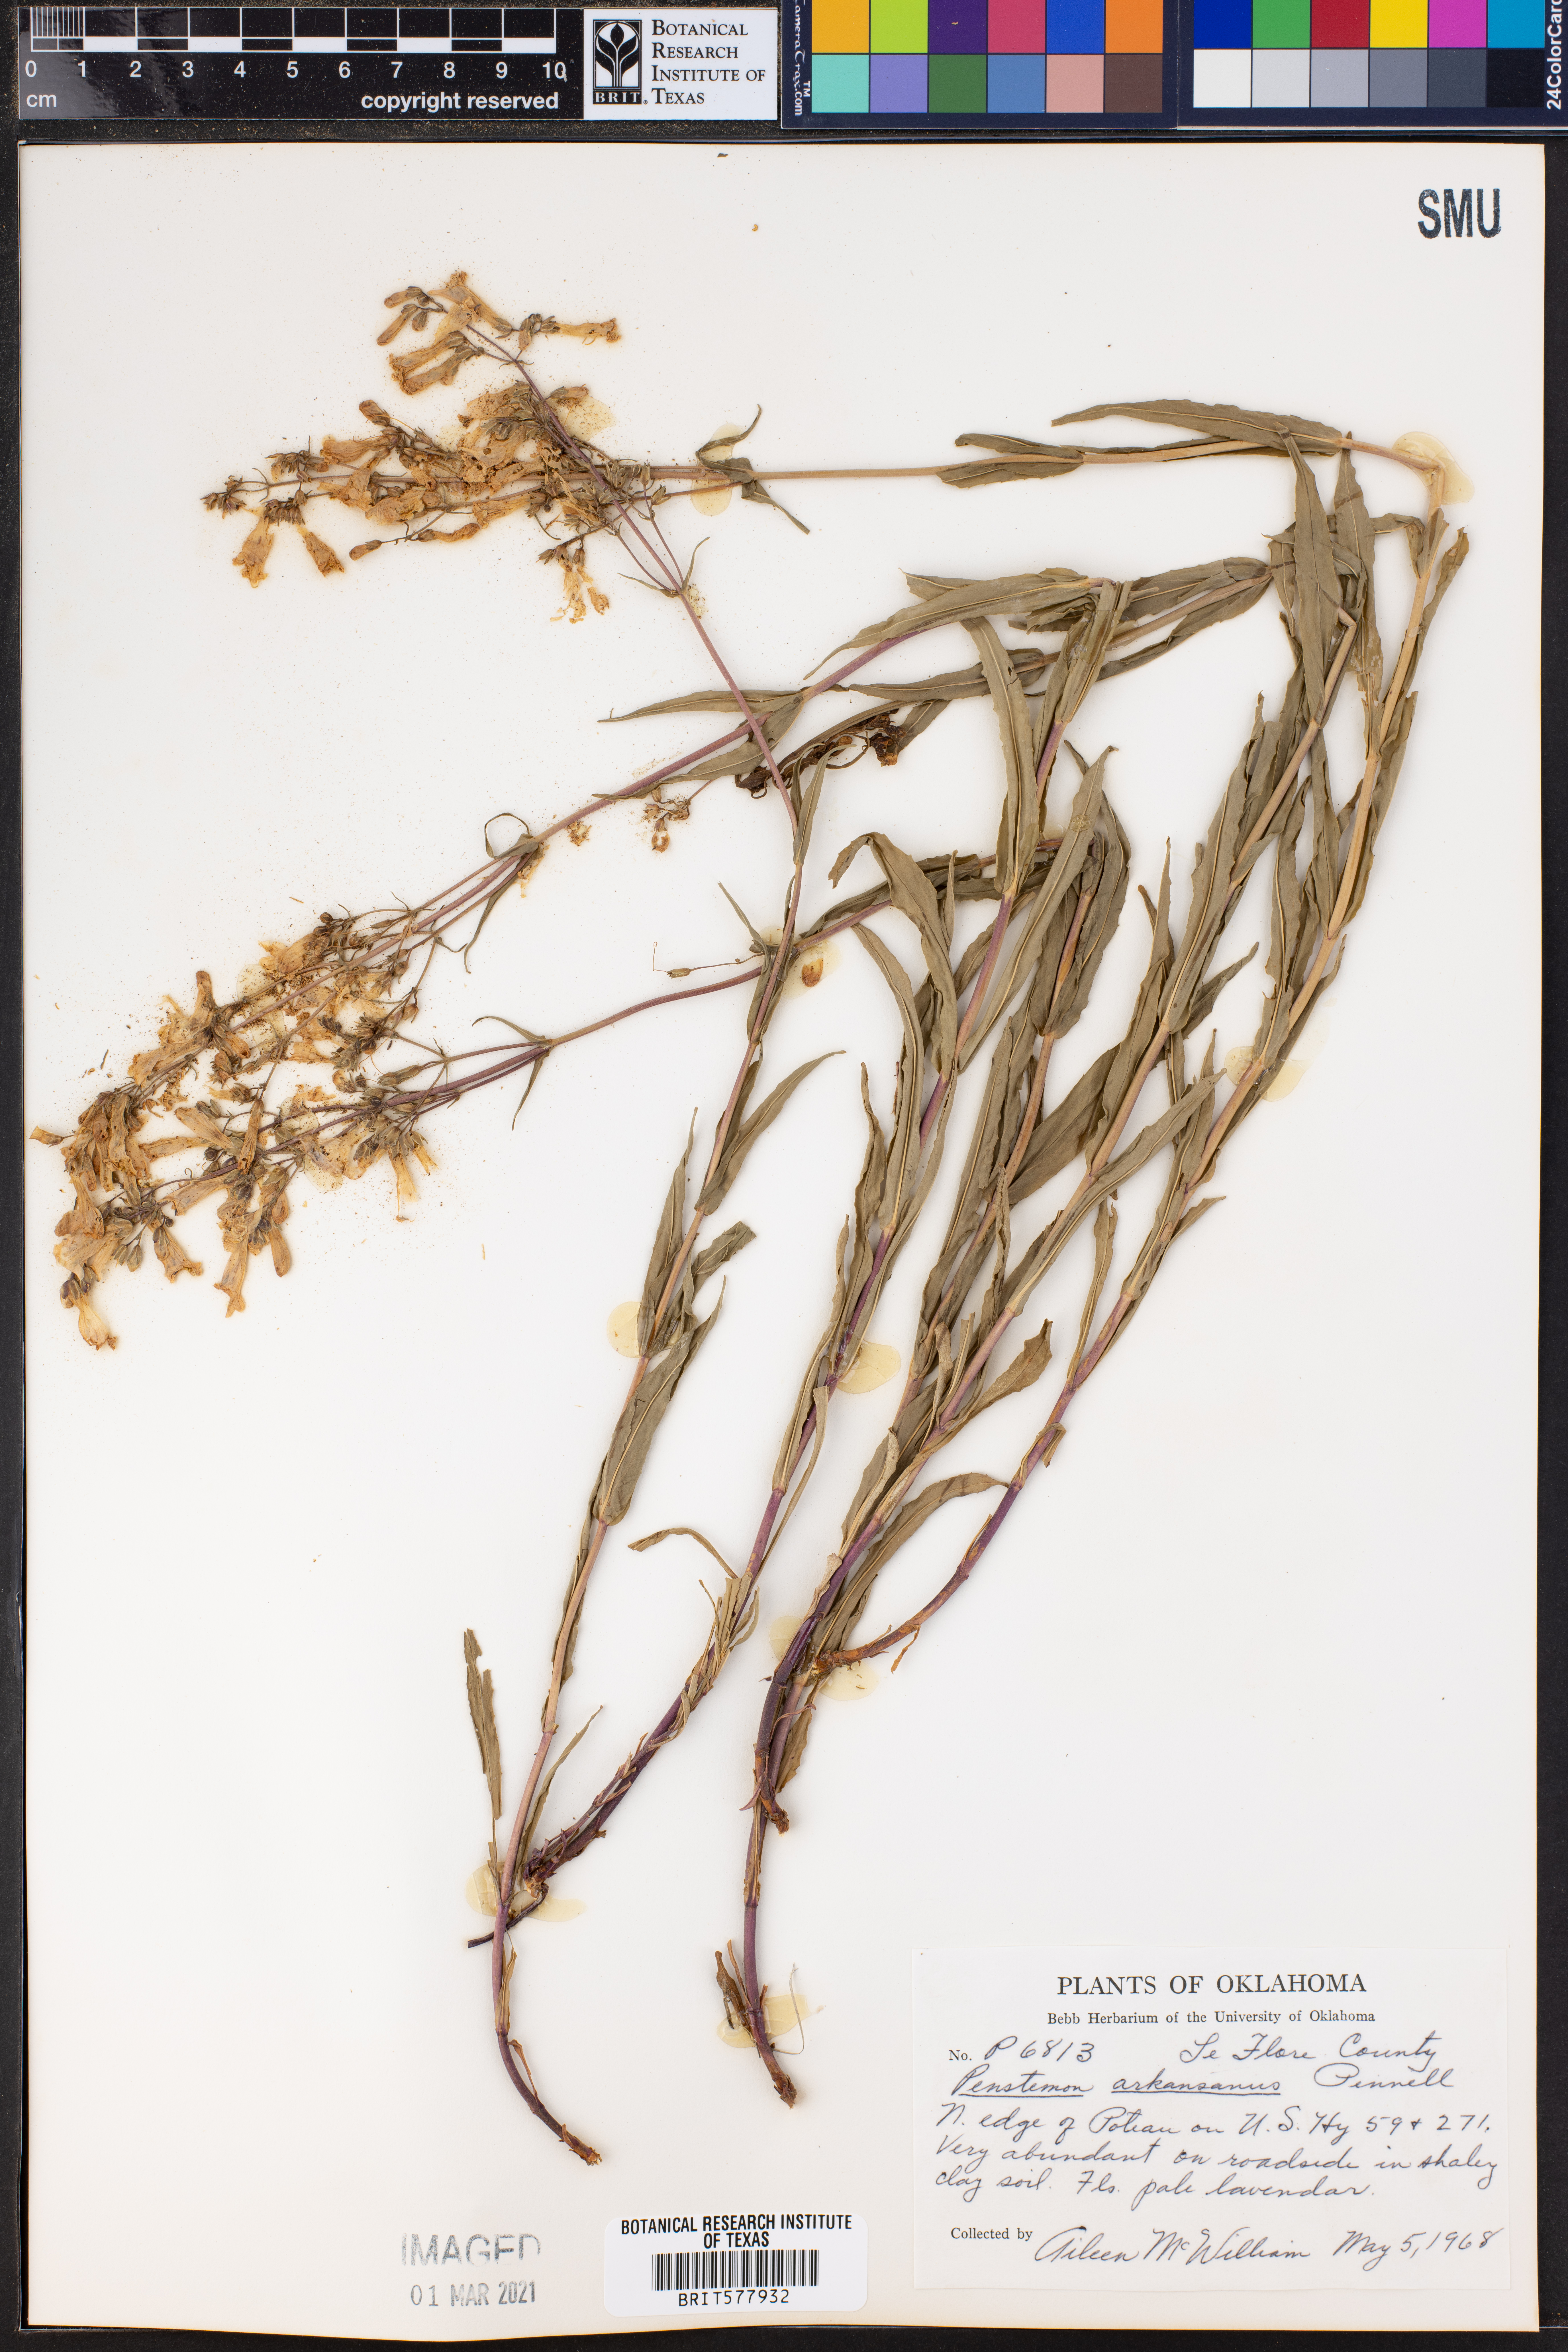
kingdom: Plantae
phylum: Tracheophyta
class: Magnoliopsida
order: Lamiales
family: Plantaginaceae
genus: Penstemon
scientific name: Penstemon arkansanus
